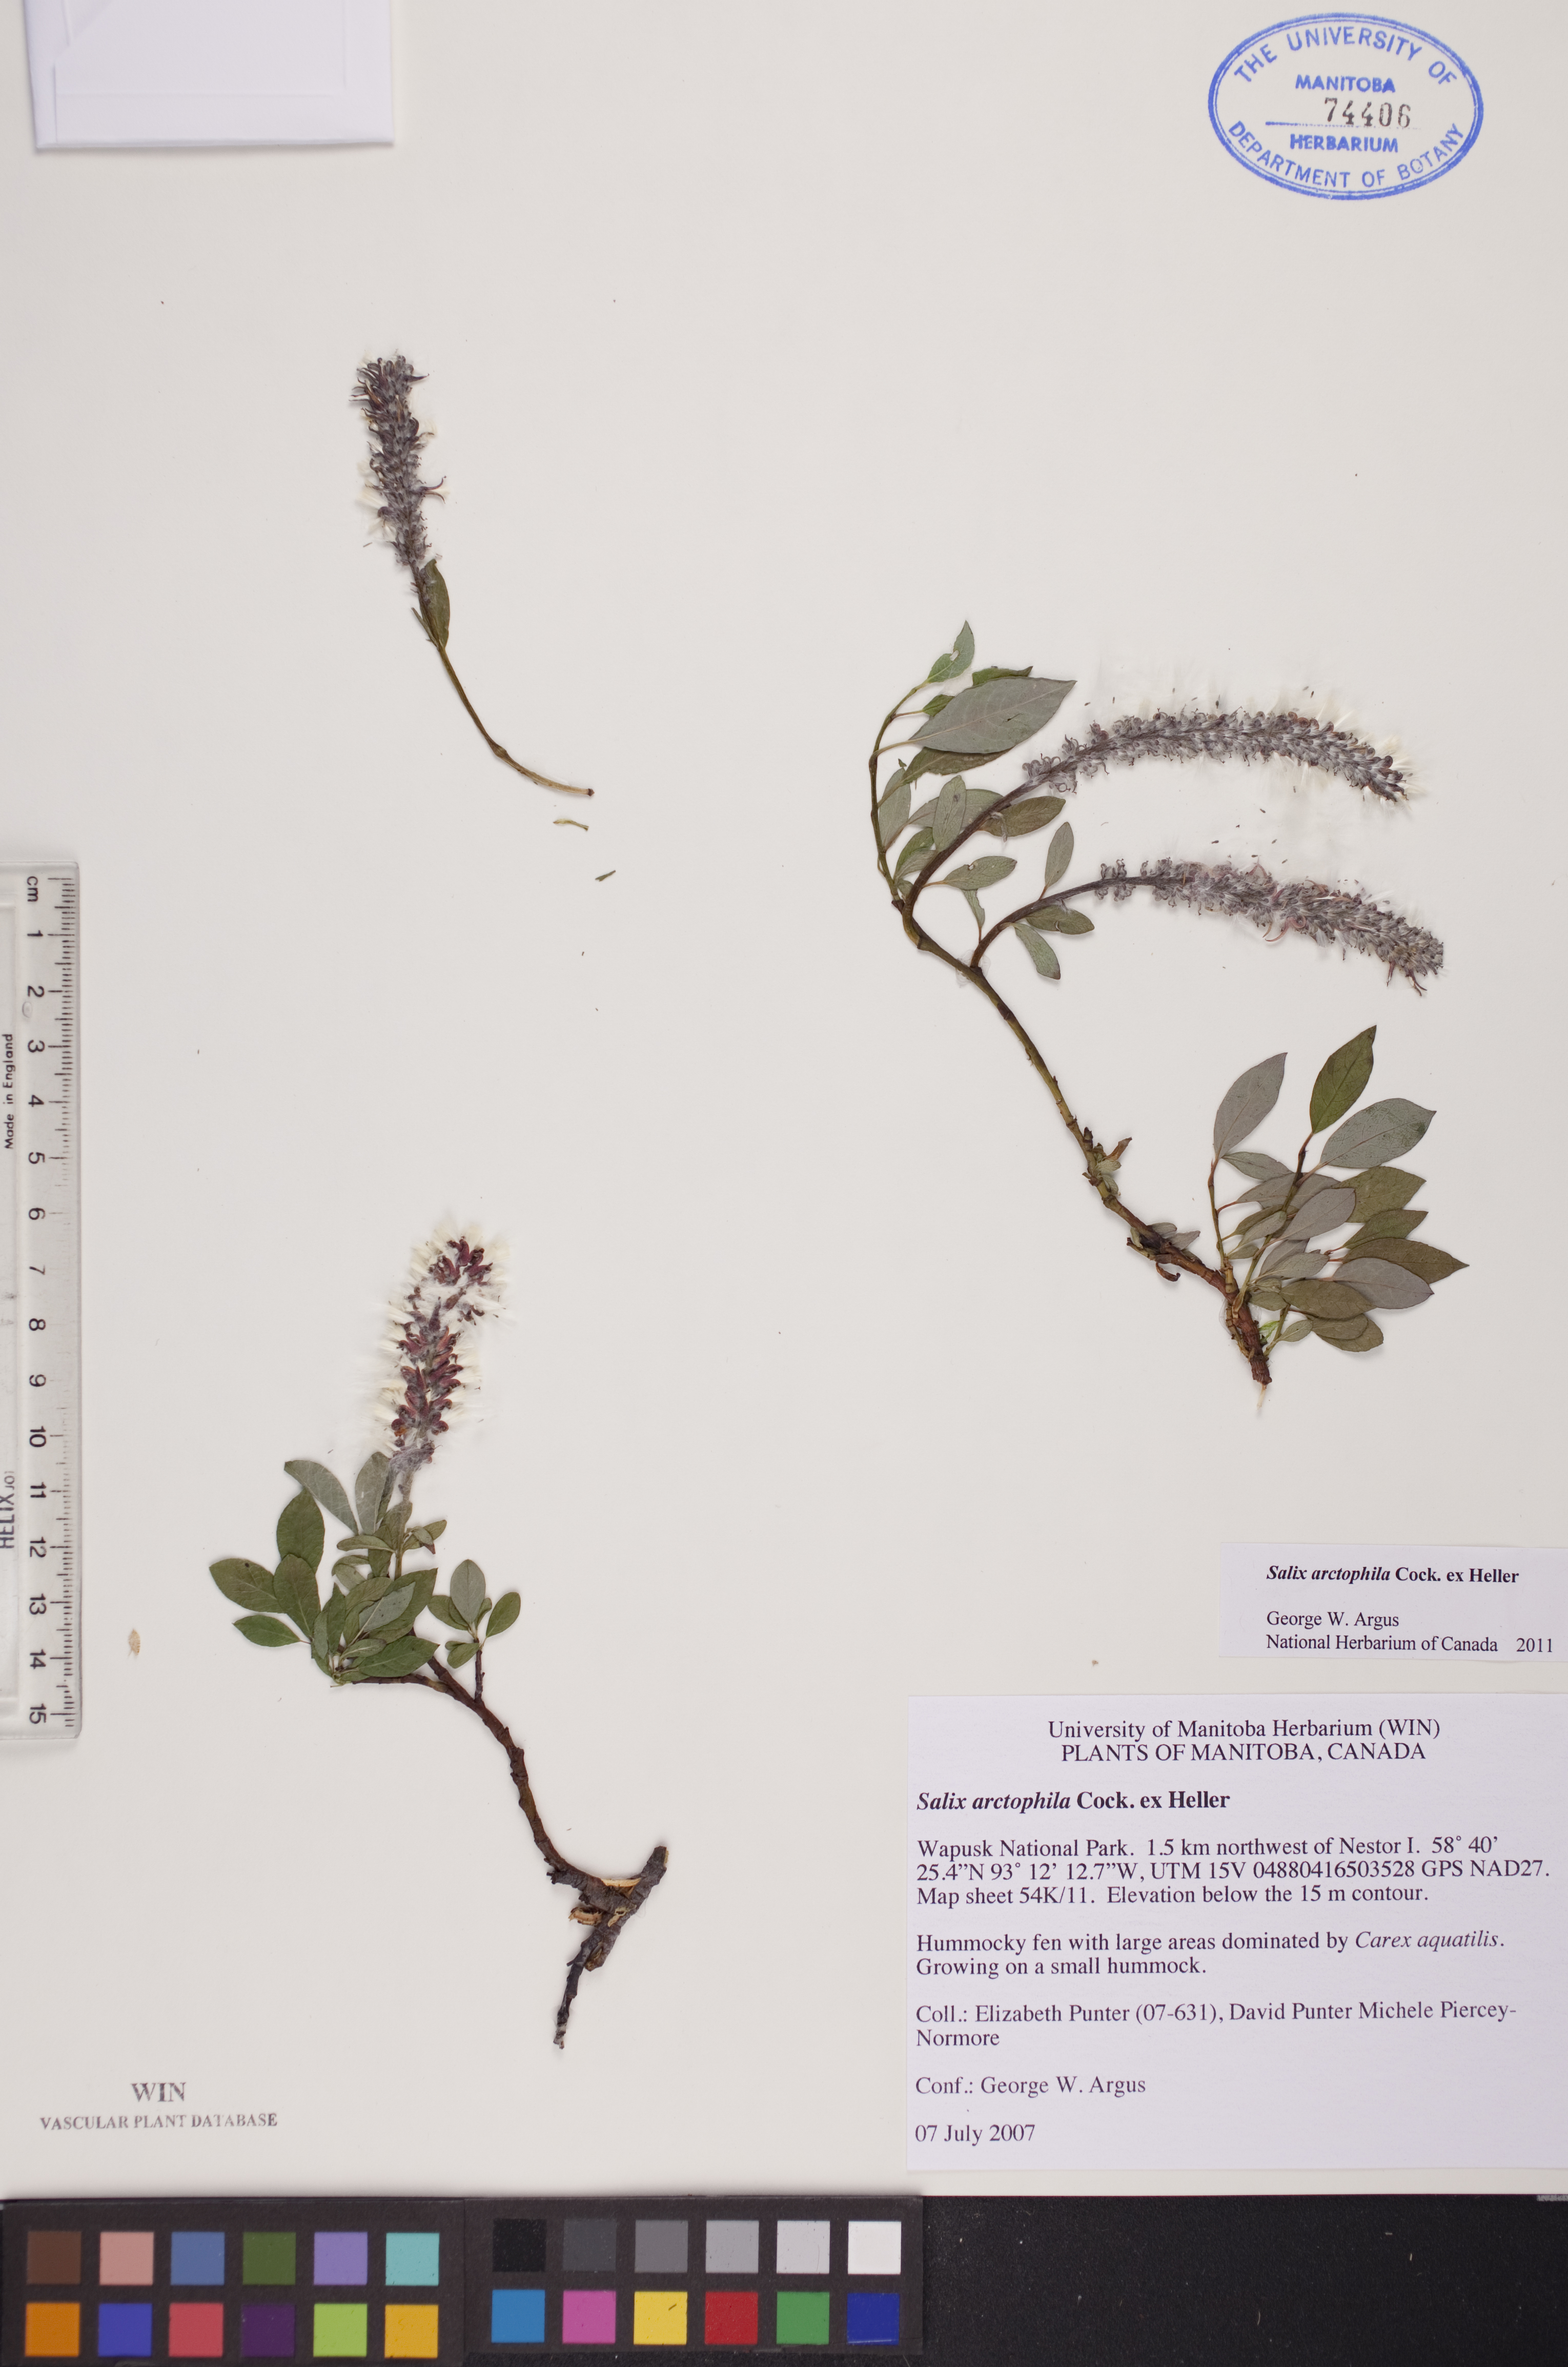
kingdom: Plantae
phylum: Tracheophyta
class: Magnoliopsida
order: Malpighiales
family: Salicaceae
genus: Salix
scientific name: Salix arctophila
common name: Greenland willow
